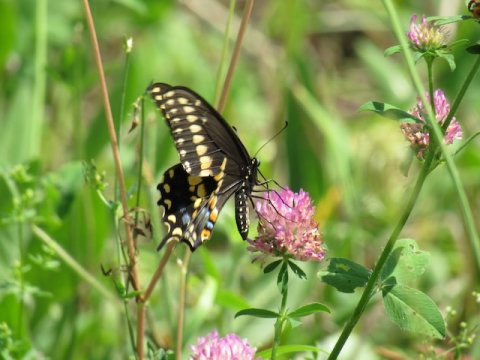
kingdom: Animalia
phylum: Arthropoda
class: Insecta
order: Lepidoptera
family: Papilionidae
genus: Papilio
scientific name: Papilio polyxenes
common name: Black Swallowtail
